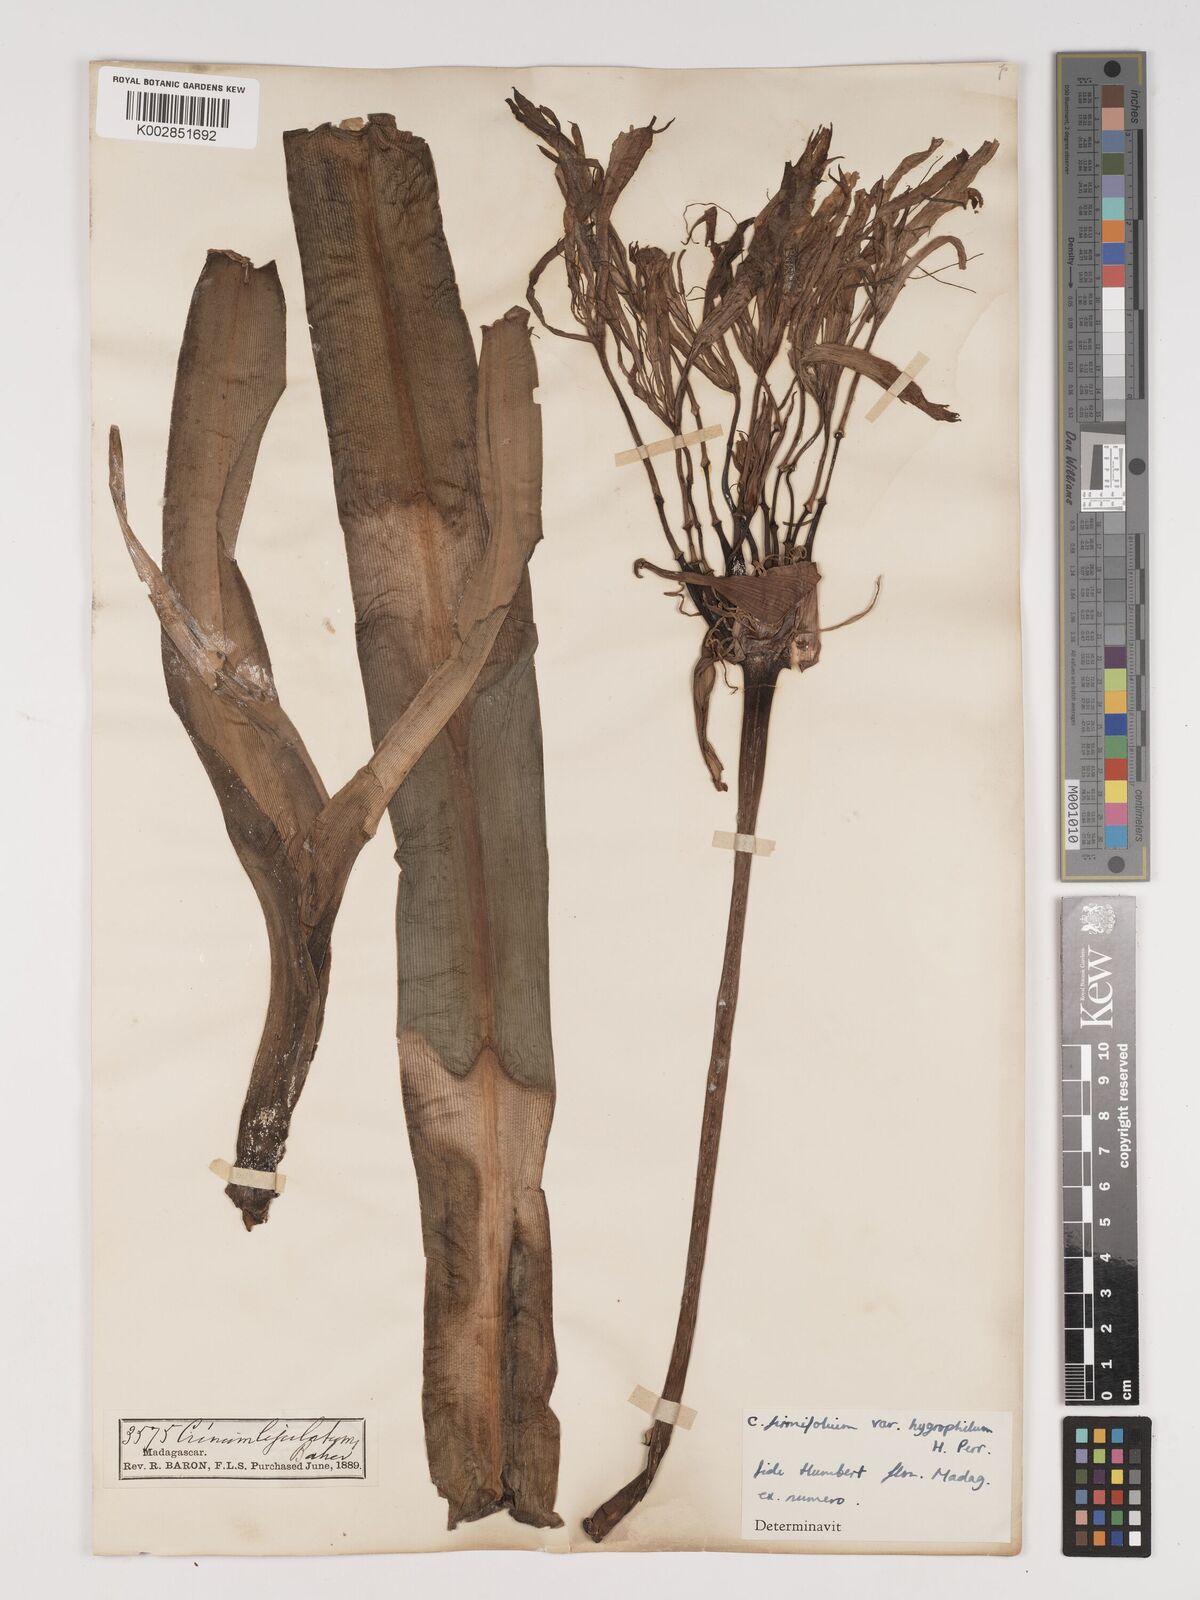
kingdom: Plantae
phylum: Tracheophyta
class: Liliopsida
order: Asparagales
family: Amaryllidaceae
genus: Crinum
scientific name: Crinum amabile
